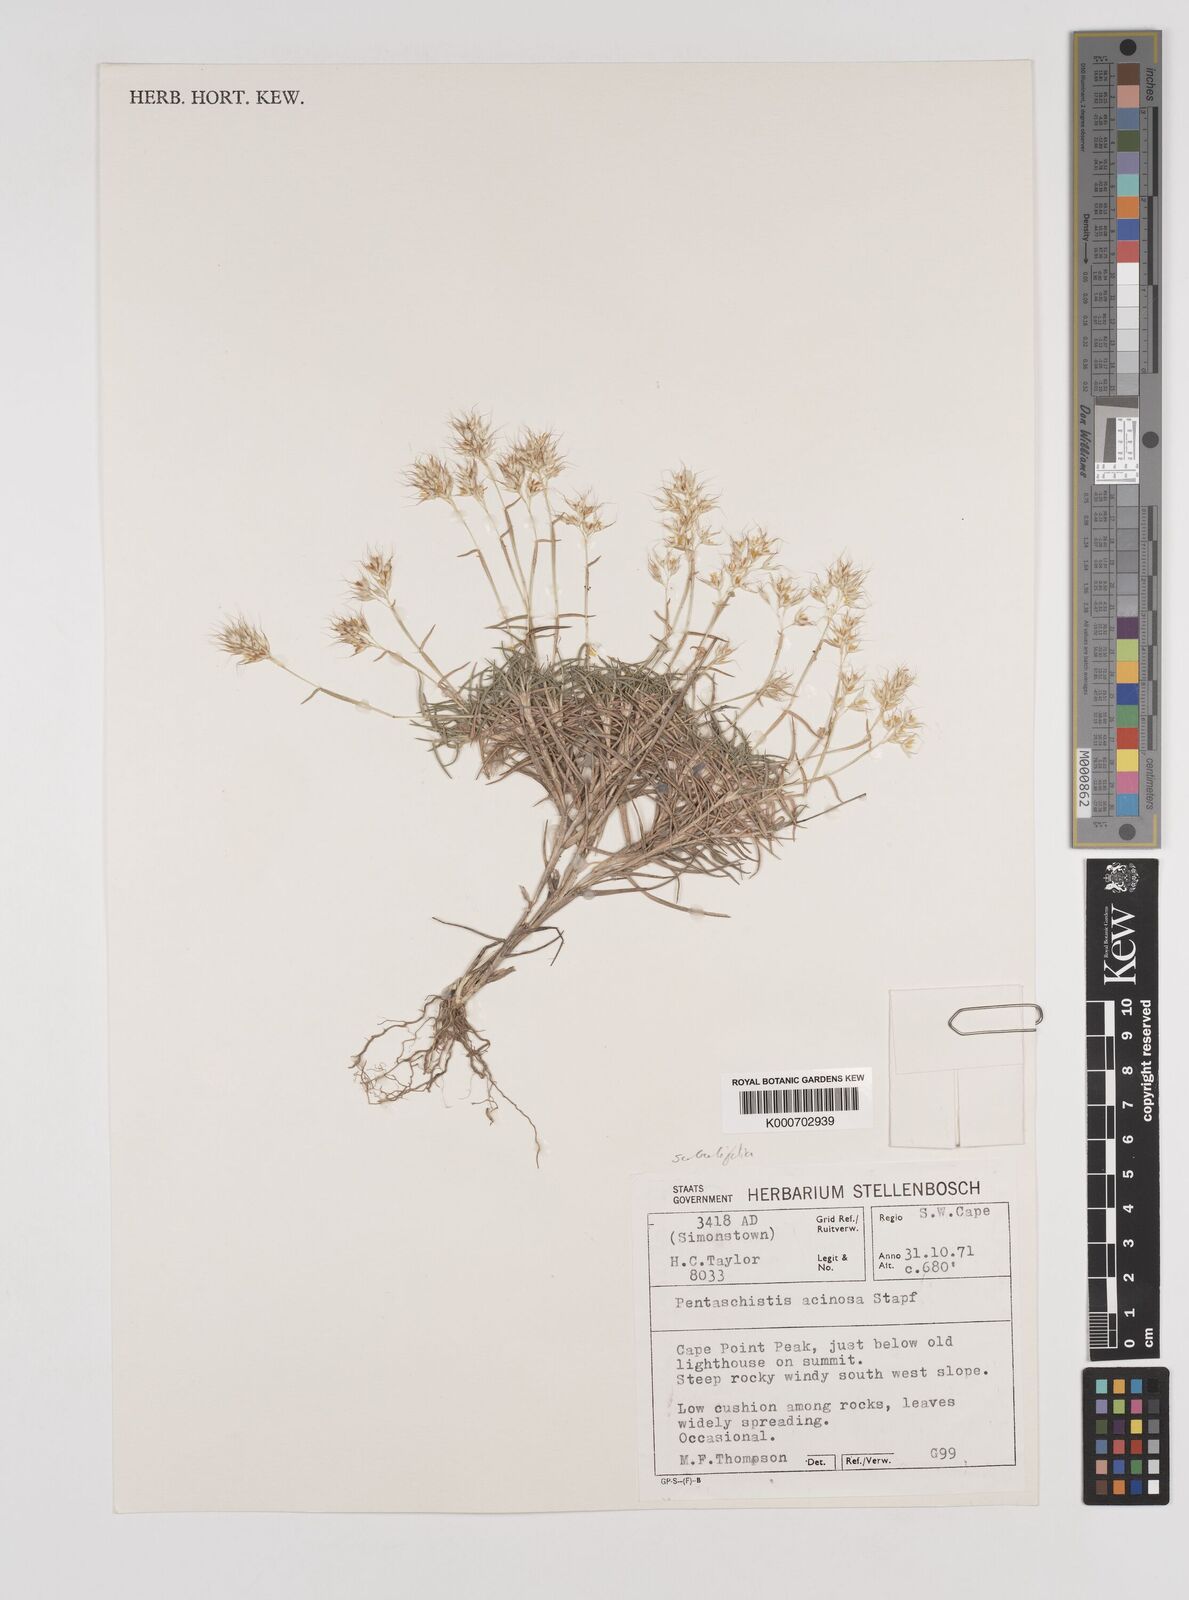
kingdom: Plantae
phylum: Tracheophyta
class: Liliopsida
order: Poales
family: Poaceae
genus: Pentameris
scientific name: Pentameris scabra
